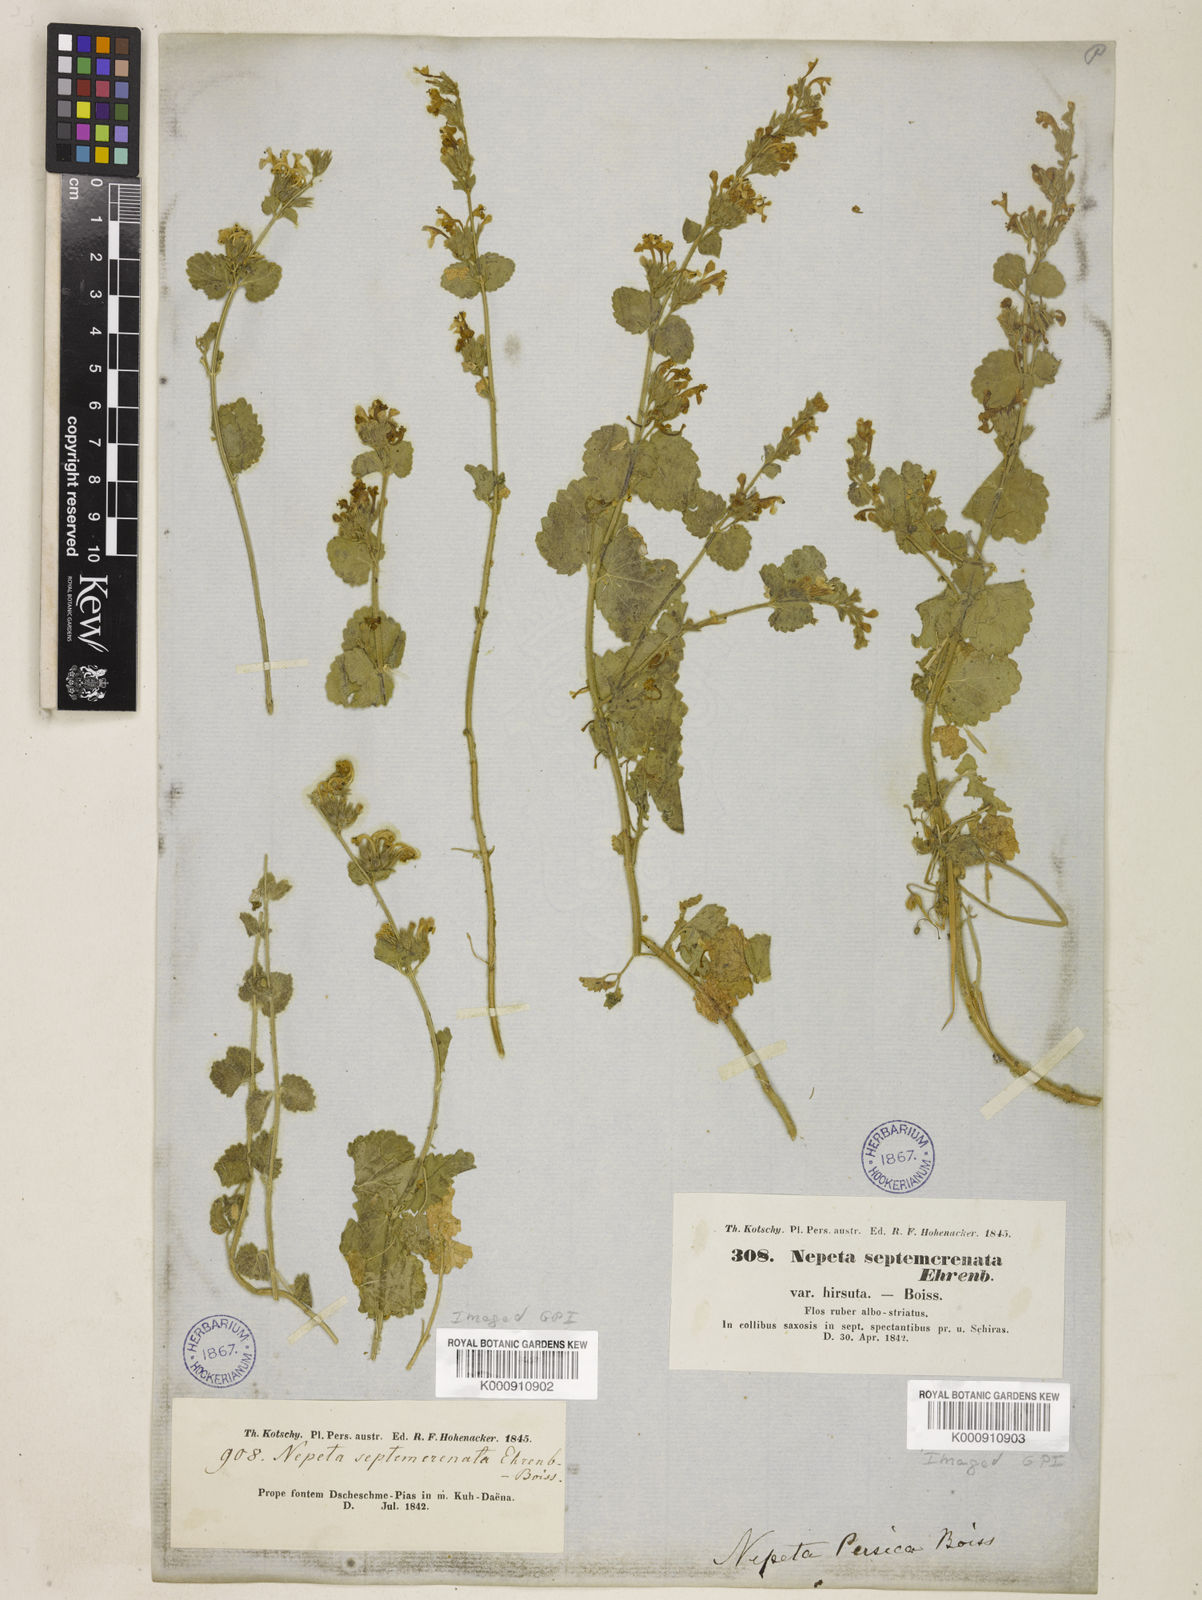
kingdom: Plantae
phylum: Tracheophyta
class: Magnoliopsida
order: Lamiales
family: Lamiaceae
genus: Nepeta
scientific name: Nepeta
